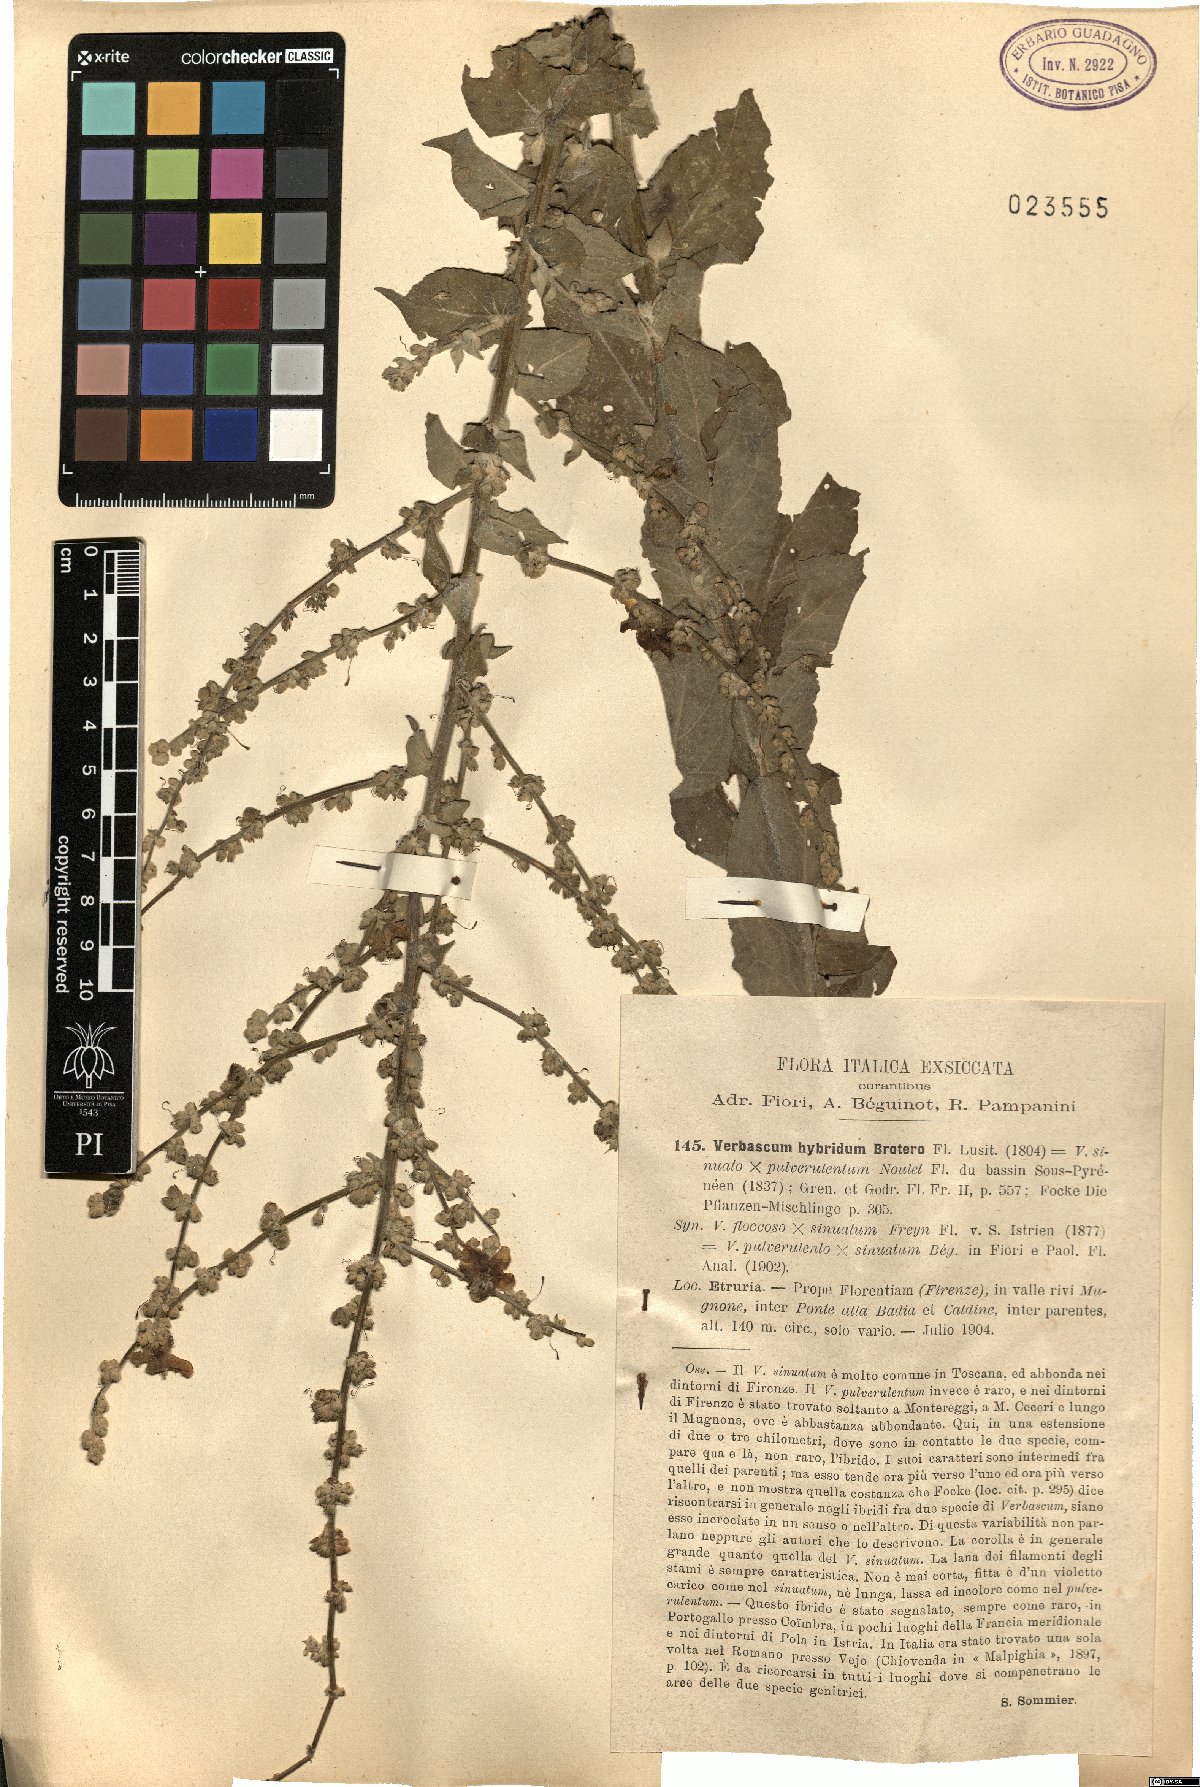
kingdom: Plantae
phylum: Tracheophyta
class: Magnoliopsida
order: Lamiales
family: Scrophulariaceae
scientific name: Scrophulariaceae
